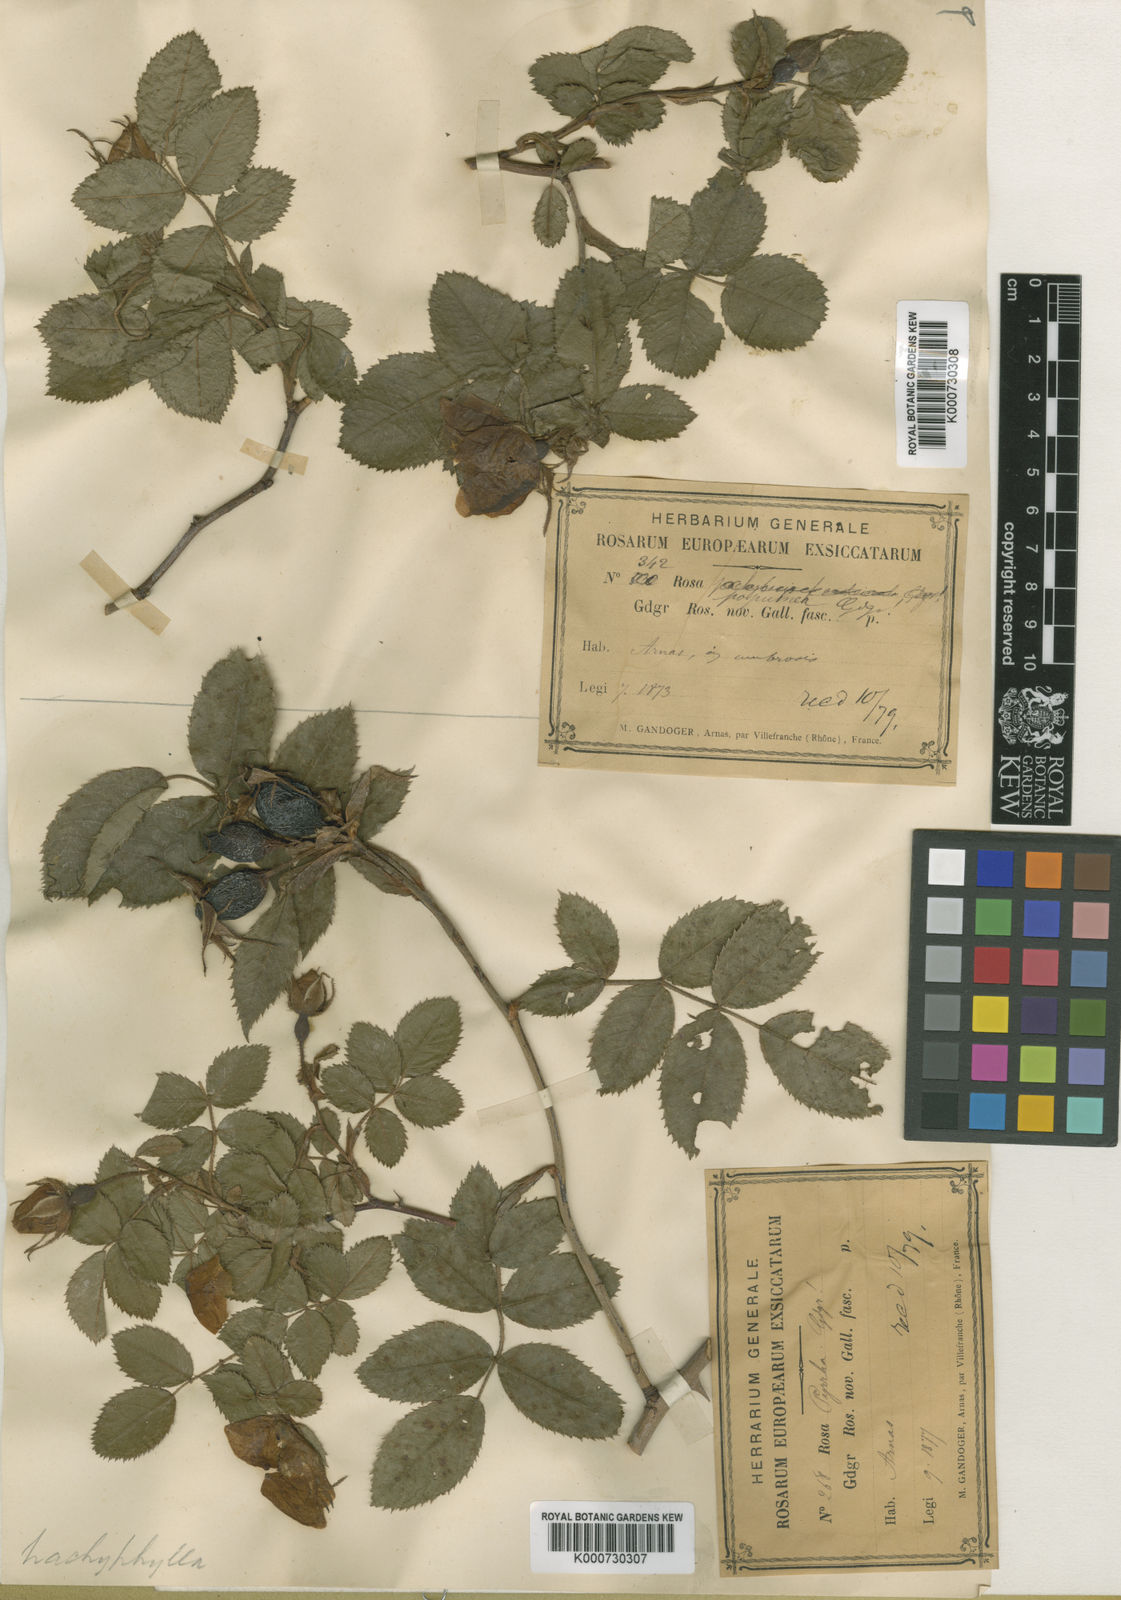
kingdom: Plantae
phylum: Tracheophyta
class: Magnoliopsida
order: Rosales
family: Rosaceae
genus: Rosa
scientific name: Rosa marginata
